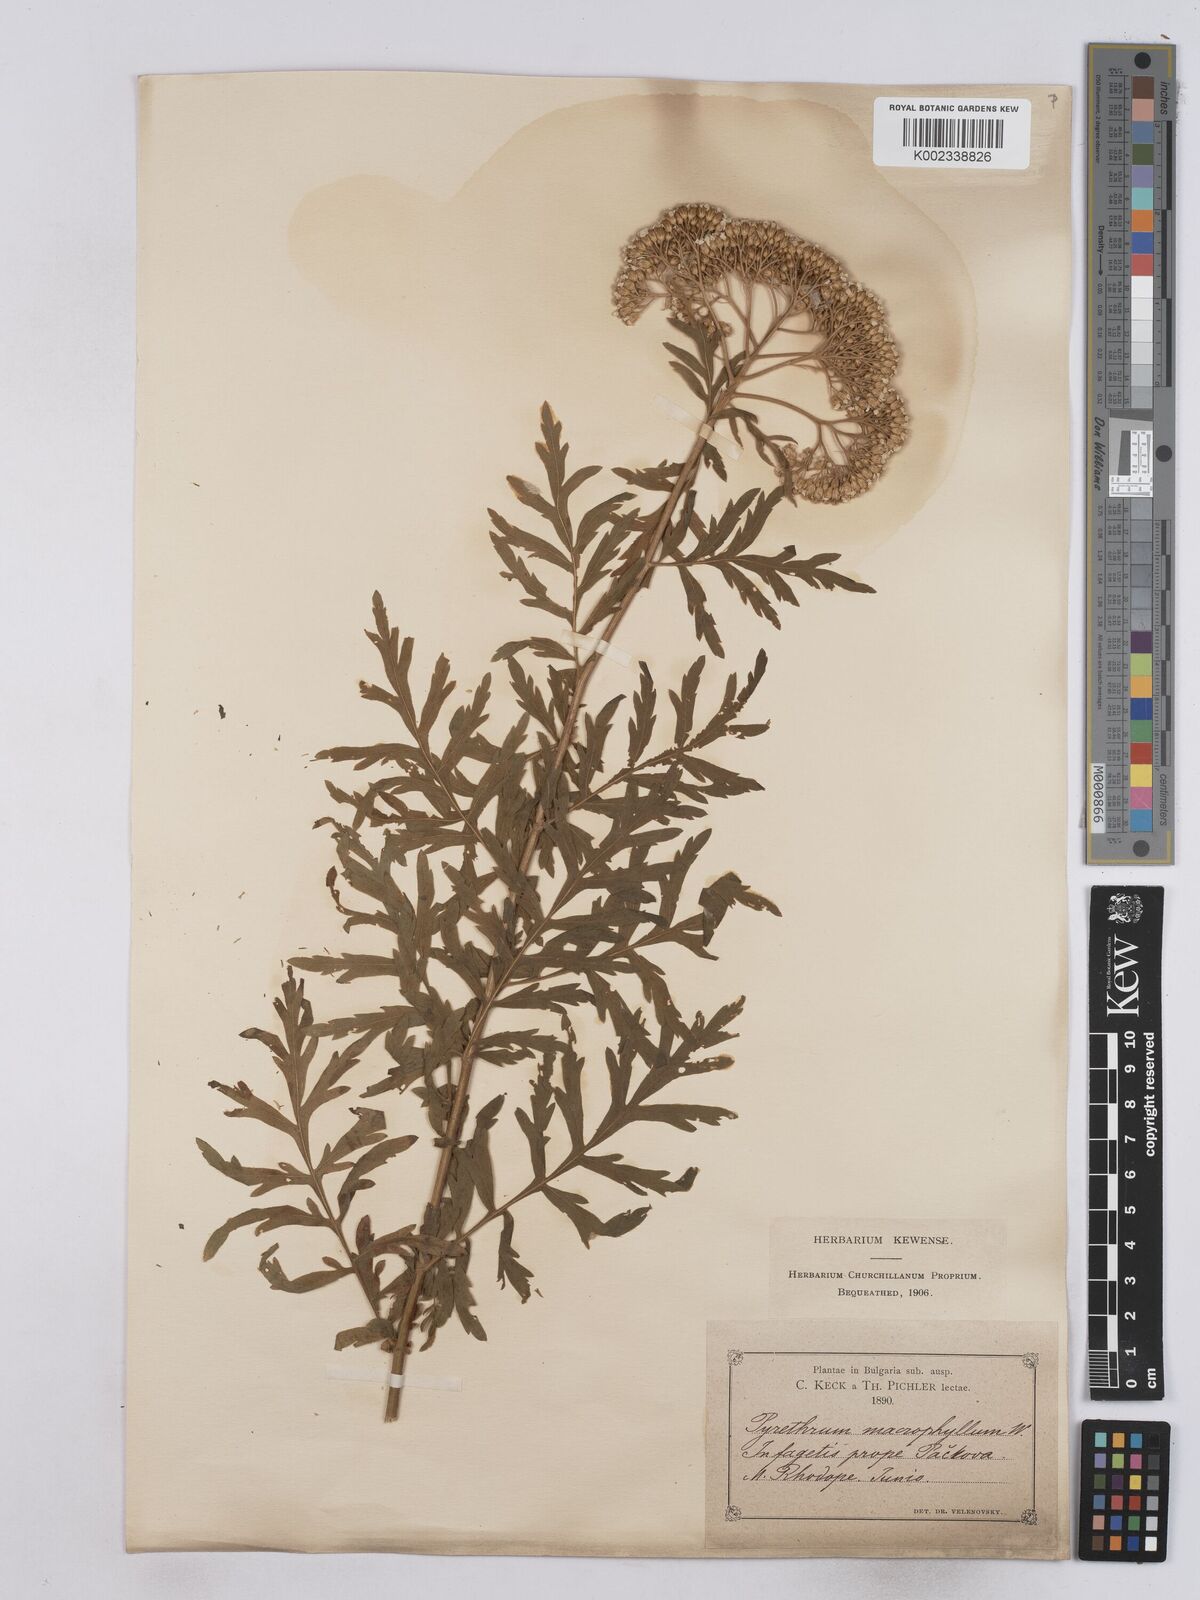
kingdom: Plantae
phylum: Tracheophyta
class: Magnoliopsida
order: Asterales
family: Asteraceae
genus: Tanacetum
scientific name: Tanacetum macrophyllum
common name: Rayed tansy
